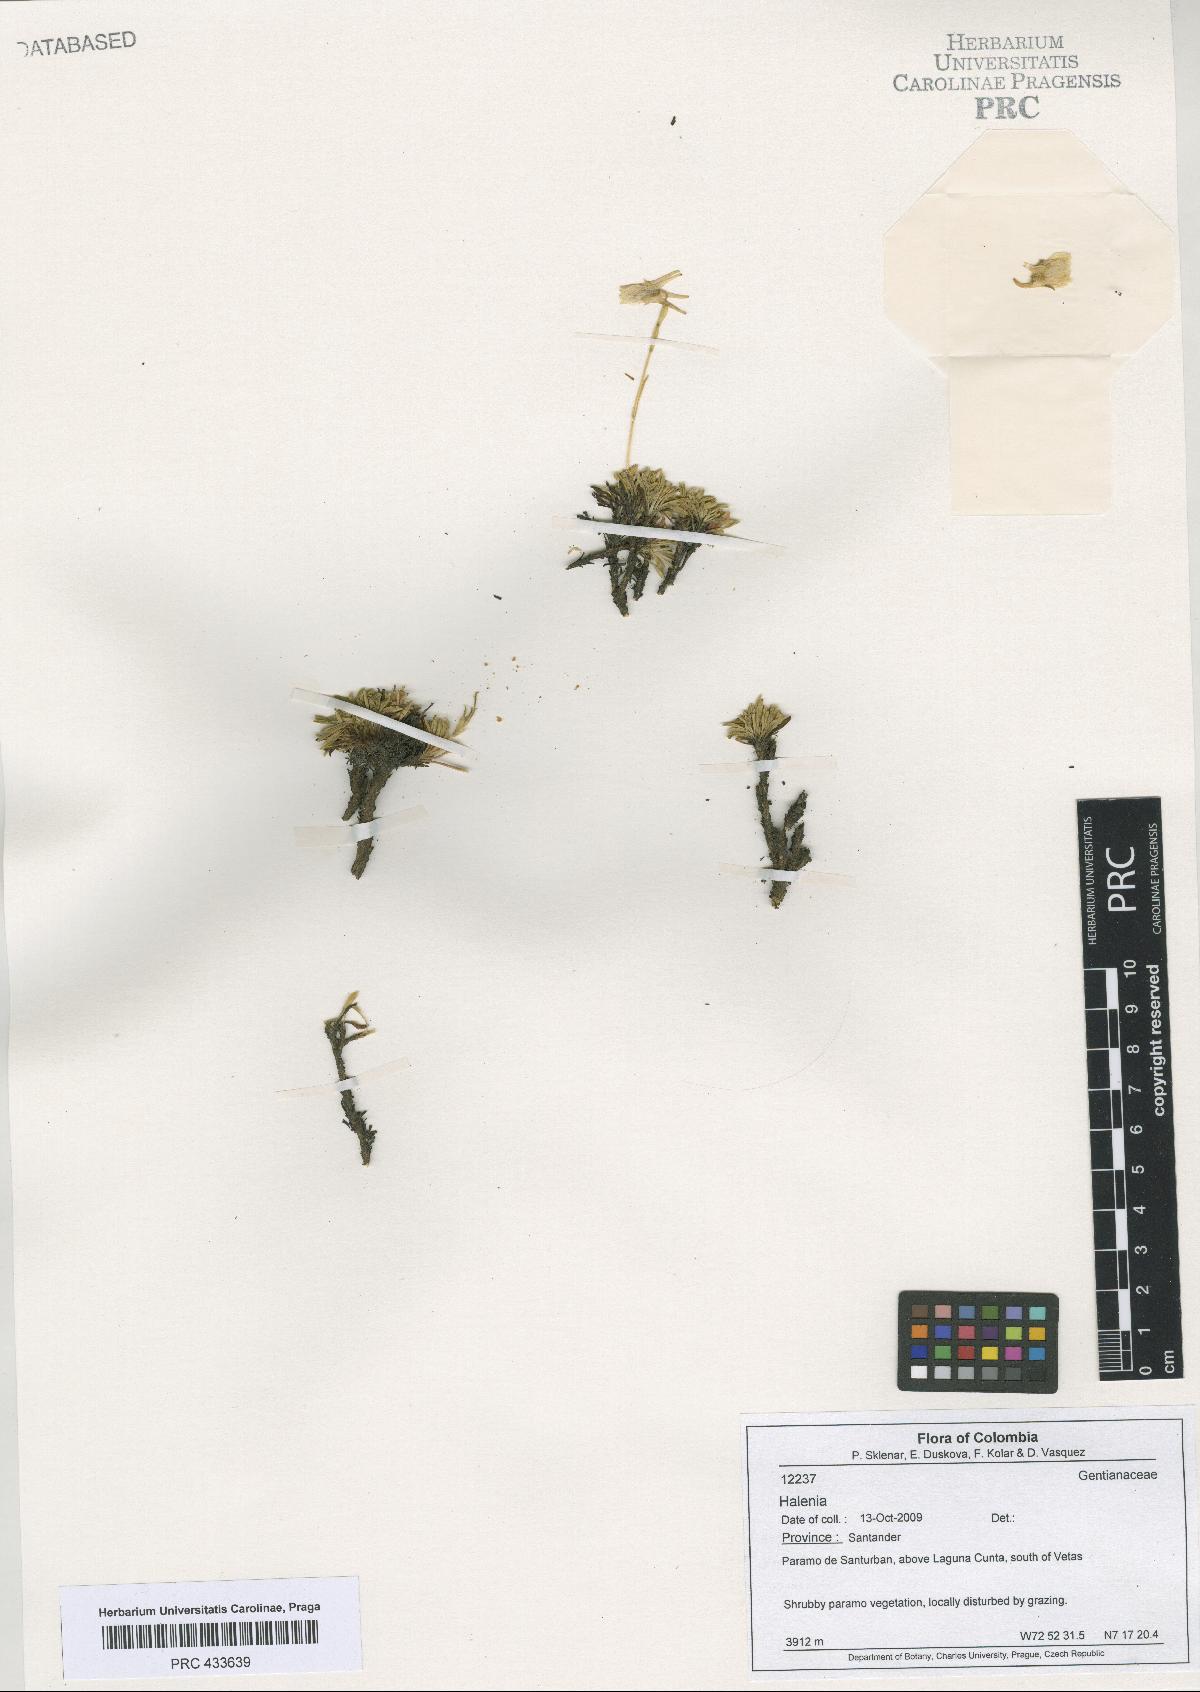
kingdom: Plantae
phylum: Tracheophyta
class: Magnoliopsida
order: Gentianales
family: Gentianaceae
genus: Halenia
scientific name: Halenia
